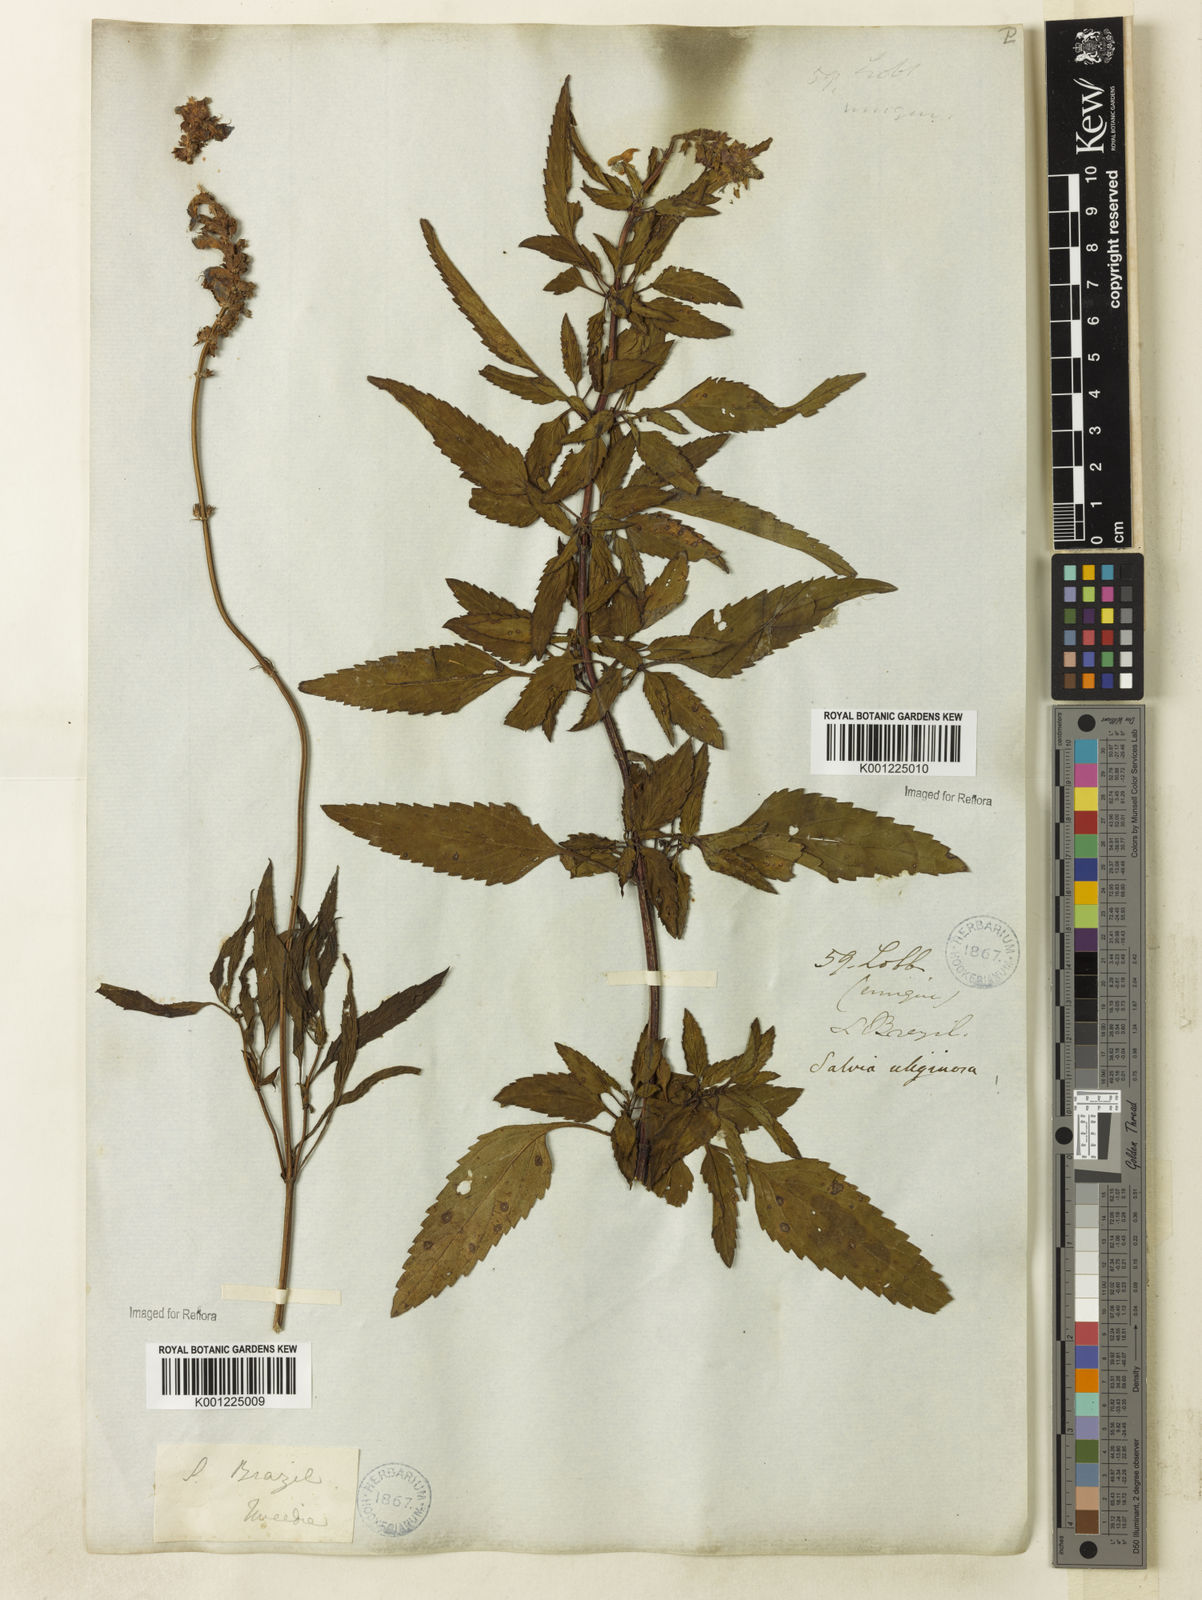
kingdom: Plantae
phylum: Tracheophyta
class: Magnoliopsida
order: Lamiales
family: Lamiaceae
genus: Salvia
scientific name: Salvia uliginosa
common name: Bog sage
